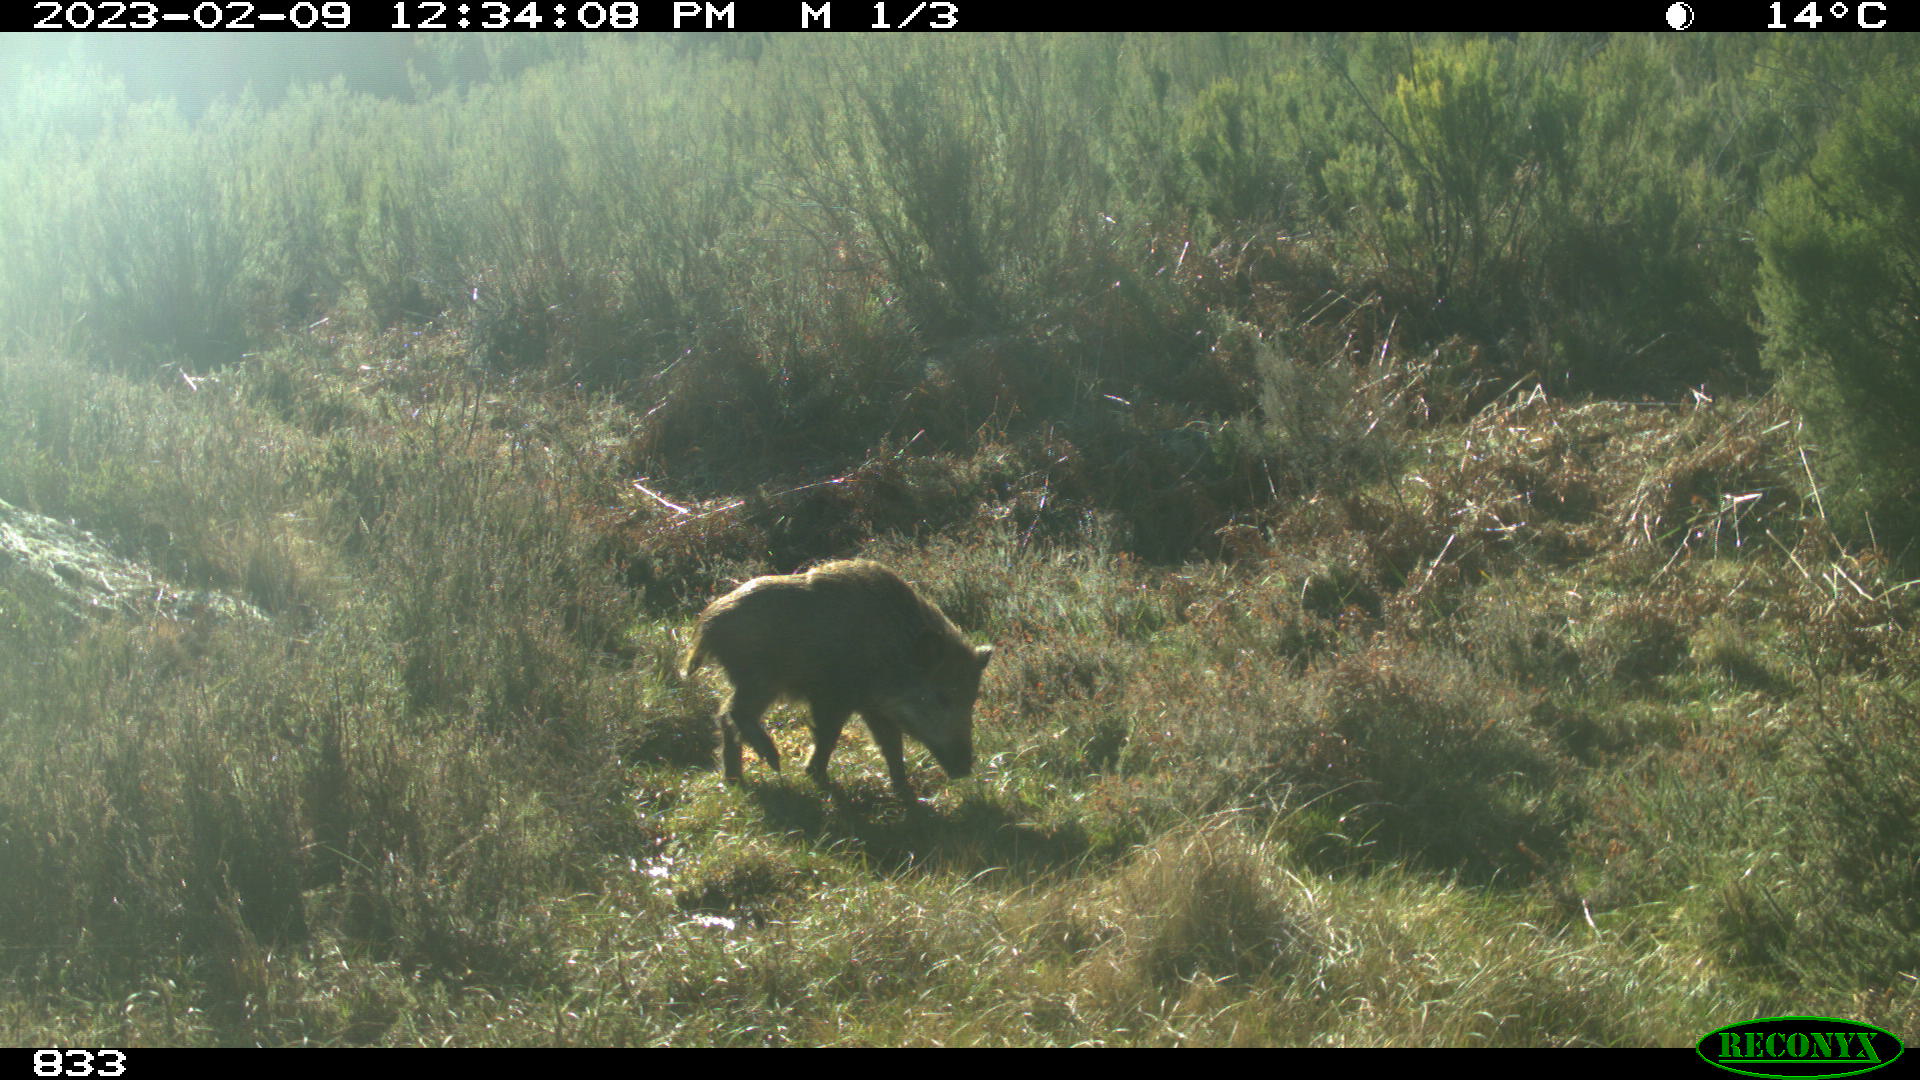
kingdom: Animalia
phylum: Chordata
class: Mammalia
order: Artiodactyla
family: Suidae
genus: Sus
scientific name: Sus scrofa
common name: Wild boar
